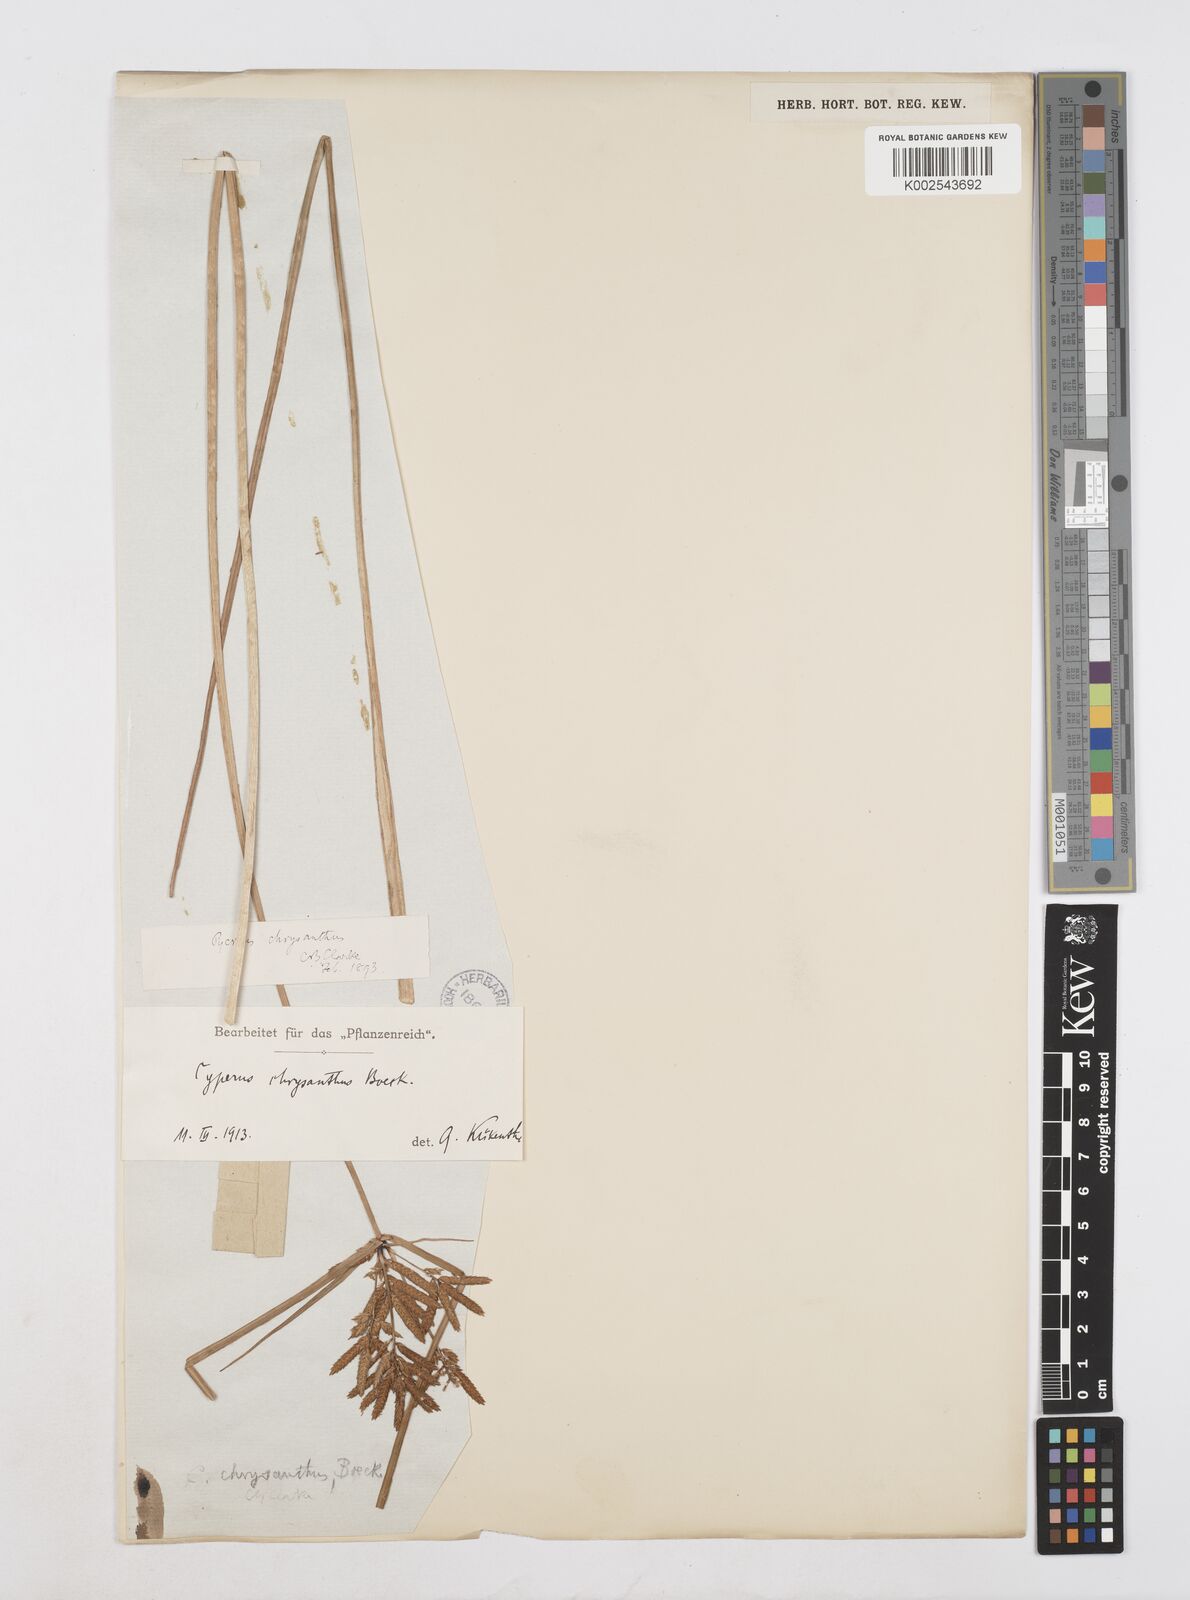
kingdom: Plantae
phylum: Tracheophyta
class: Liliopsida
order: Poales
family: Cyperaceae
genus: Cyperus
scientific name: Cyperus chrysanthus
